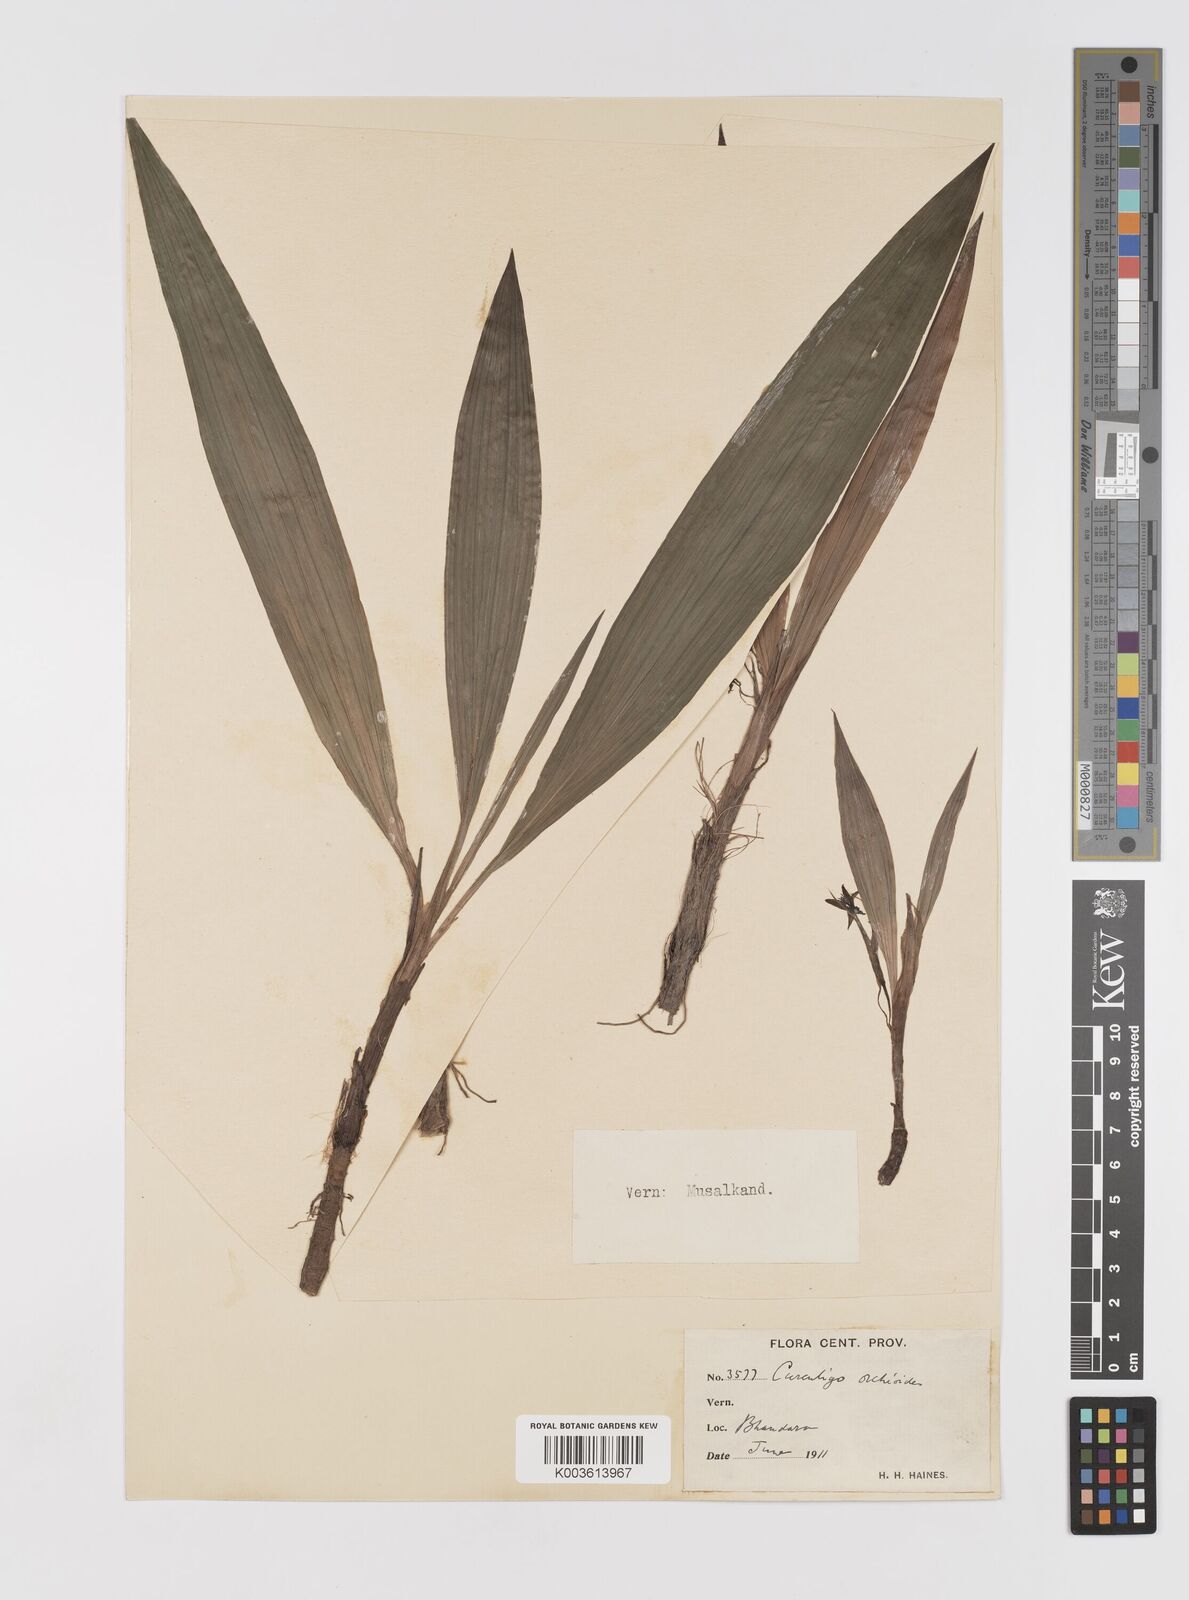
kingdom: Plantae
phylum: Tracheophyta
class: Liliopsida
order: Asparagales
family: Hypoxidaceae
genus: Curculigo
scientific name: Curculigo orchioides
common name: Golden eye-grass
